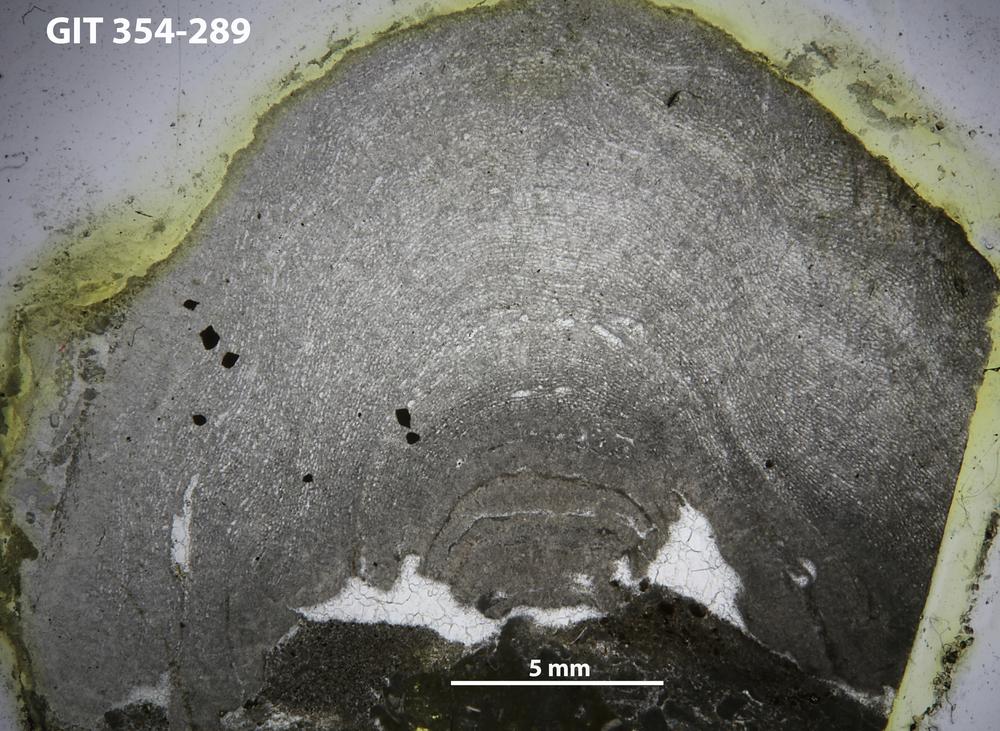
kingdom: Animalia
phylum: Porifera
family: Clathrodictyidae
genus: Clathrodictyon
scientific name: Clathrodictyon demissum
